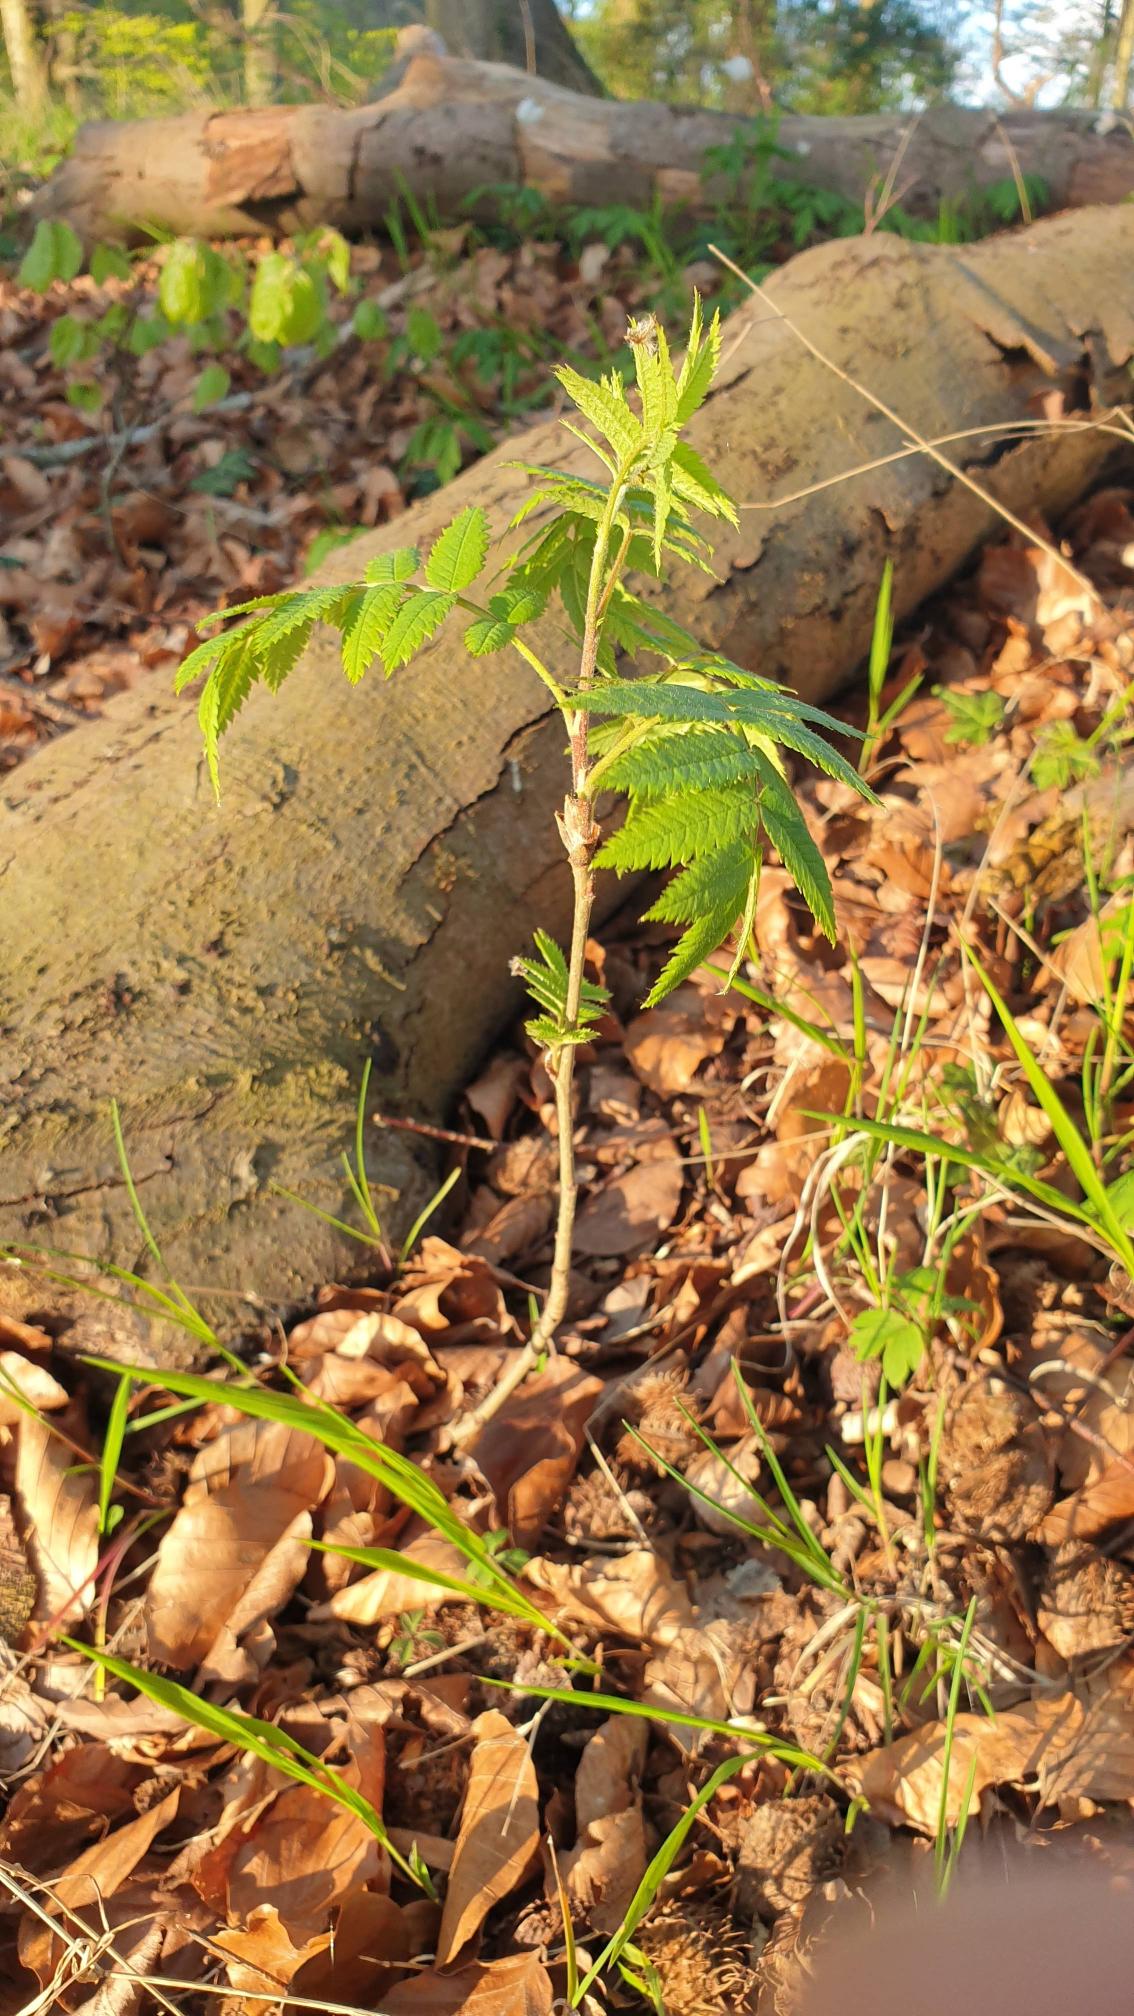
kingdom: Plantae
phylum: Tracheophyta
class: Magnoliopsida
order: Rosales
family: Rosaceae
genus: Sorbus
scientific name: Sorbus aucuparia
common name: Almindelig røn
